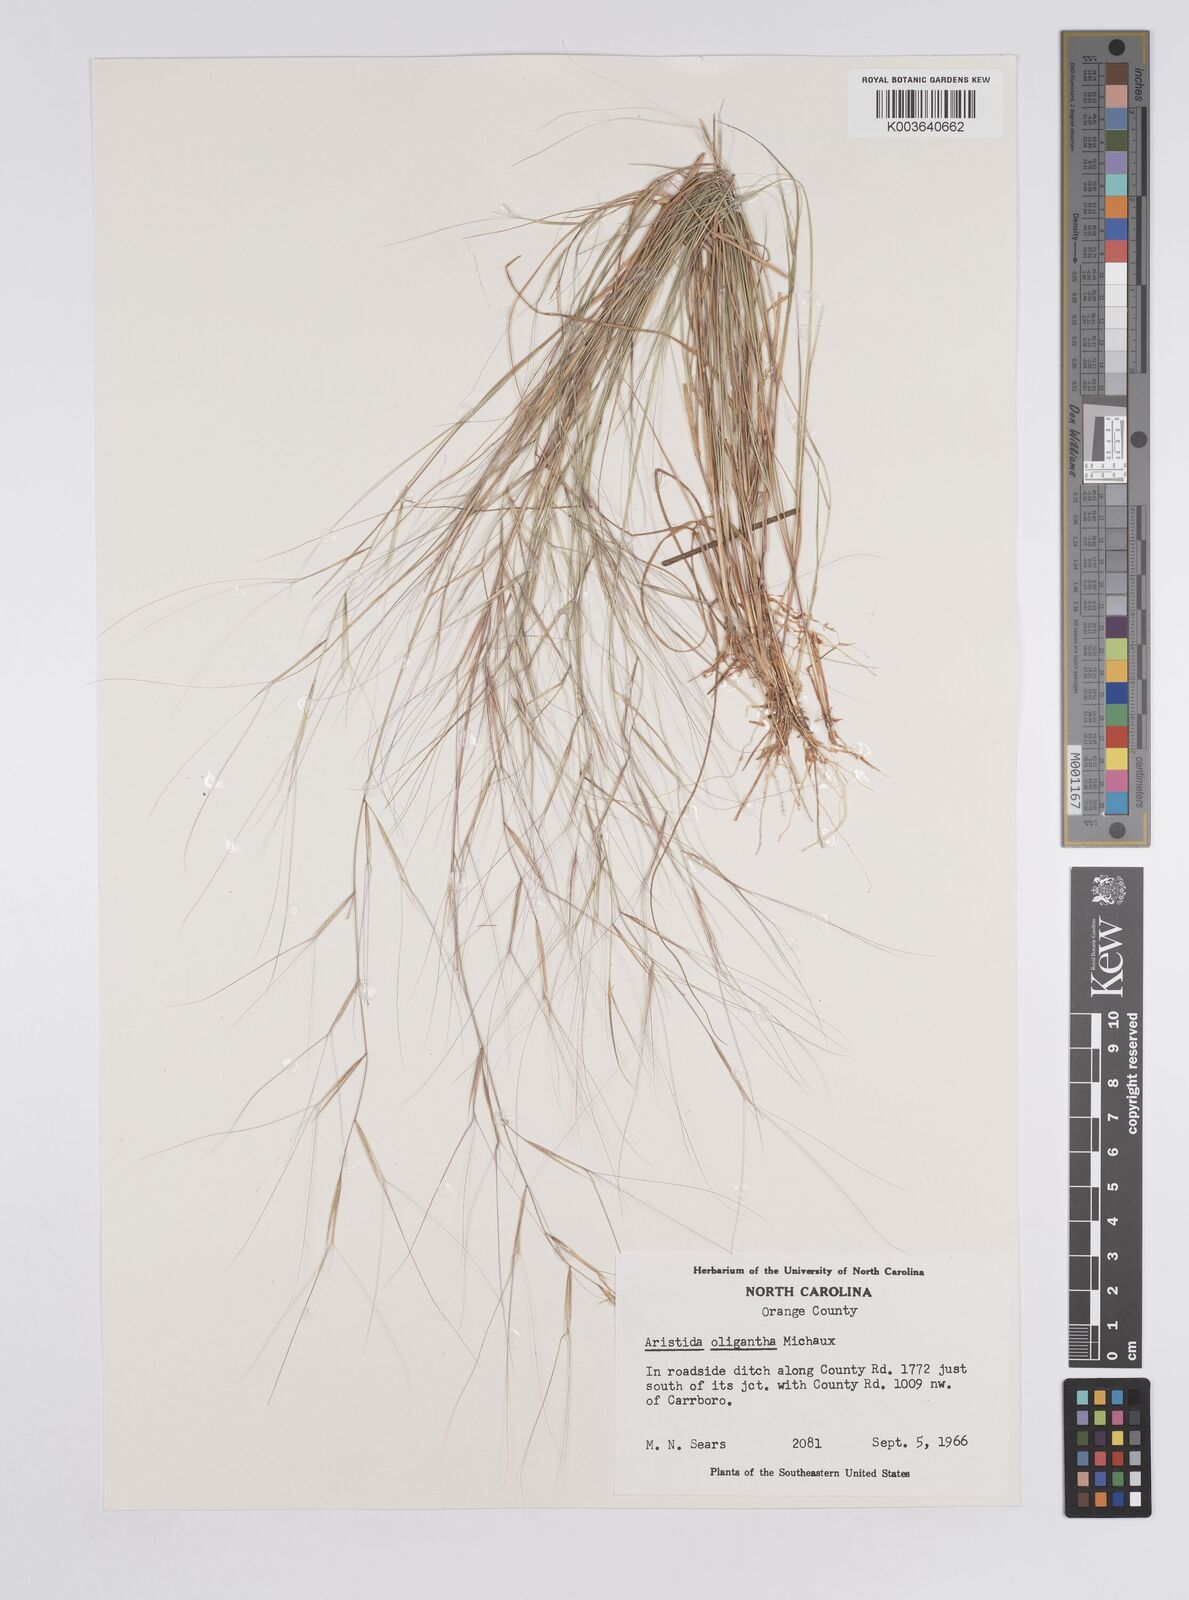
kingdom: Plantae
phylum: Tracheophyta
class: Liliopsida
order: Poales
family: Poaceae
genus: Aristida
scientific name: Aristida oligantha
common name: Few-flowered aristida
